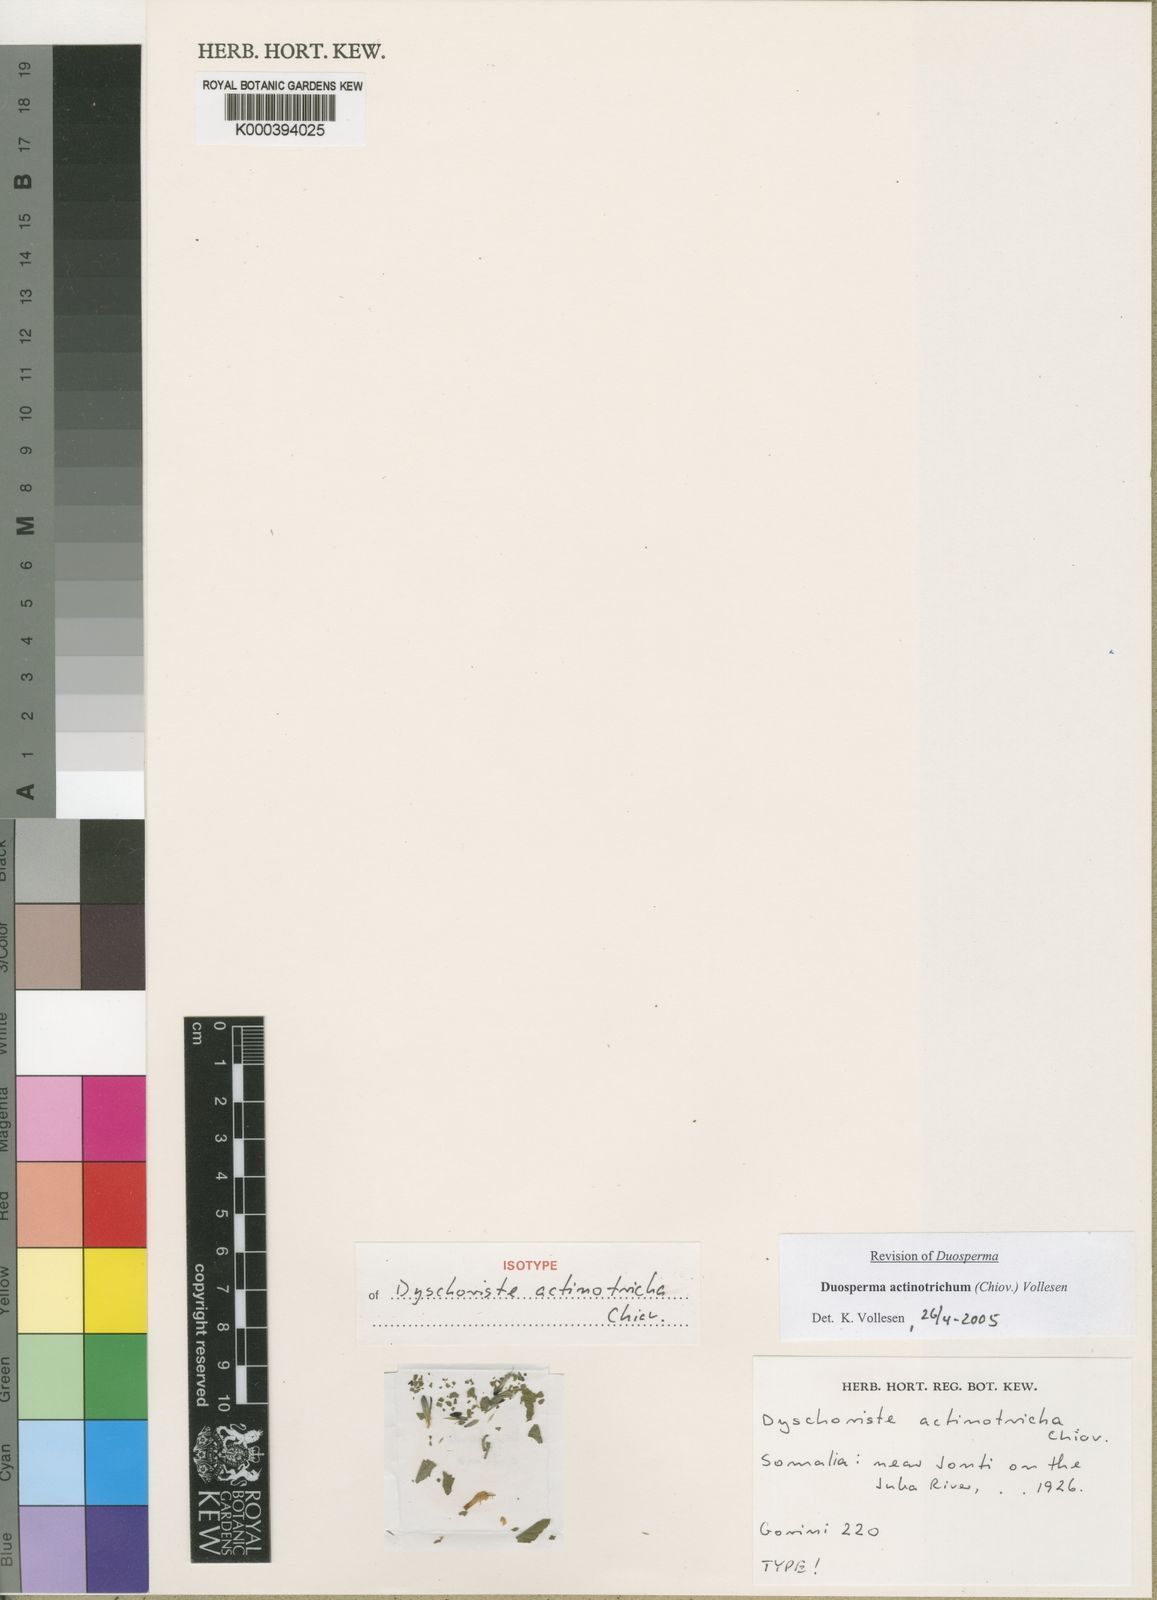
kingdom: Plantae
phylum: Tracheophyta
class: Magnoliopsida
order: Lamiales
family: Acanthaceae
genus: Duosperma
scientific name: Duosperma actinotrichum
